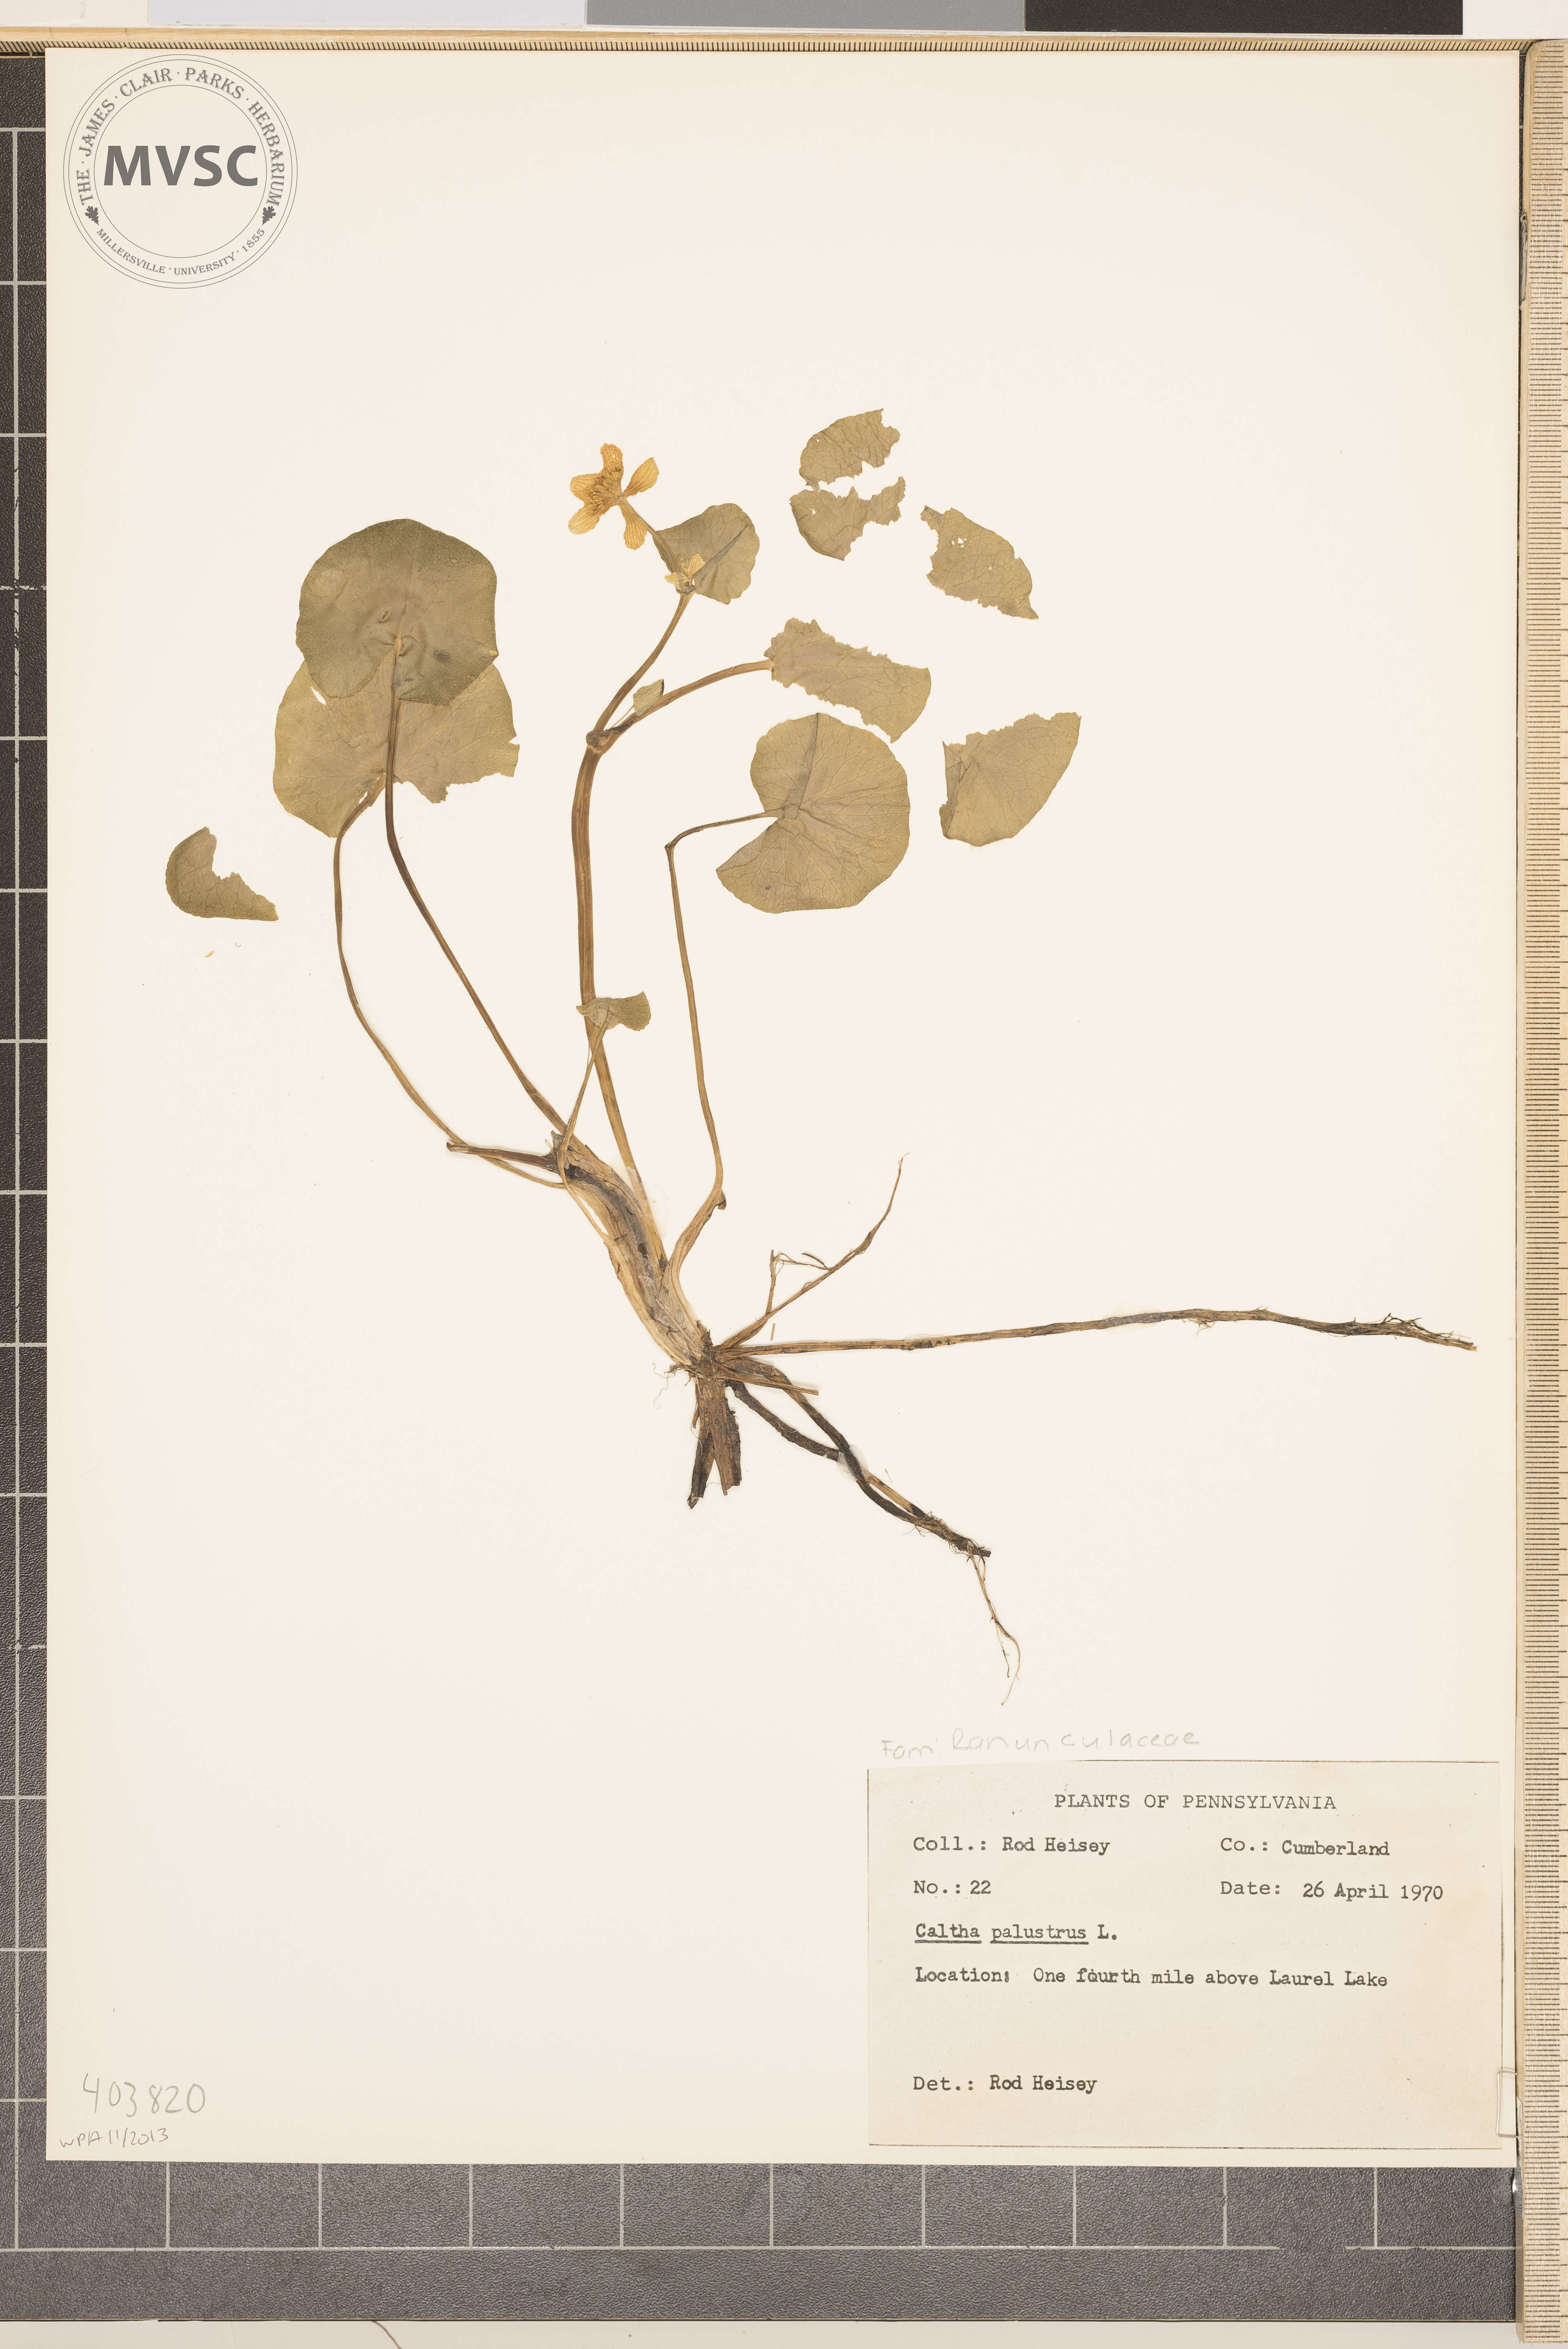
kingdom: Plantae
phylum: Tracheophyta
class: Magnoliopsida
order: Ranunculales
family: Ranunculaceae
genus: Caltha
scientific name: Caltha palustris
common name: Marsh marigold
